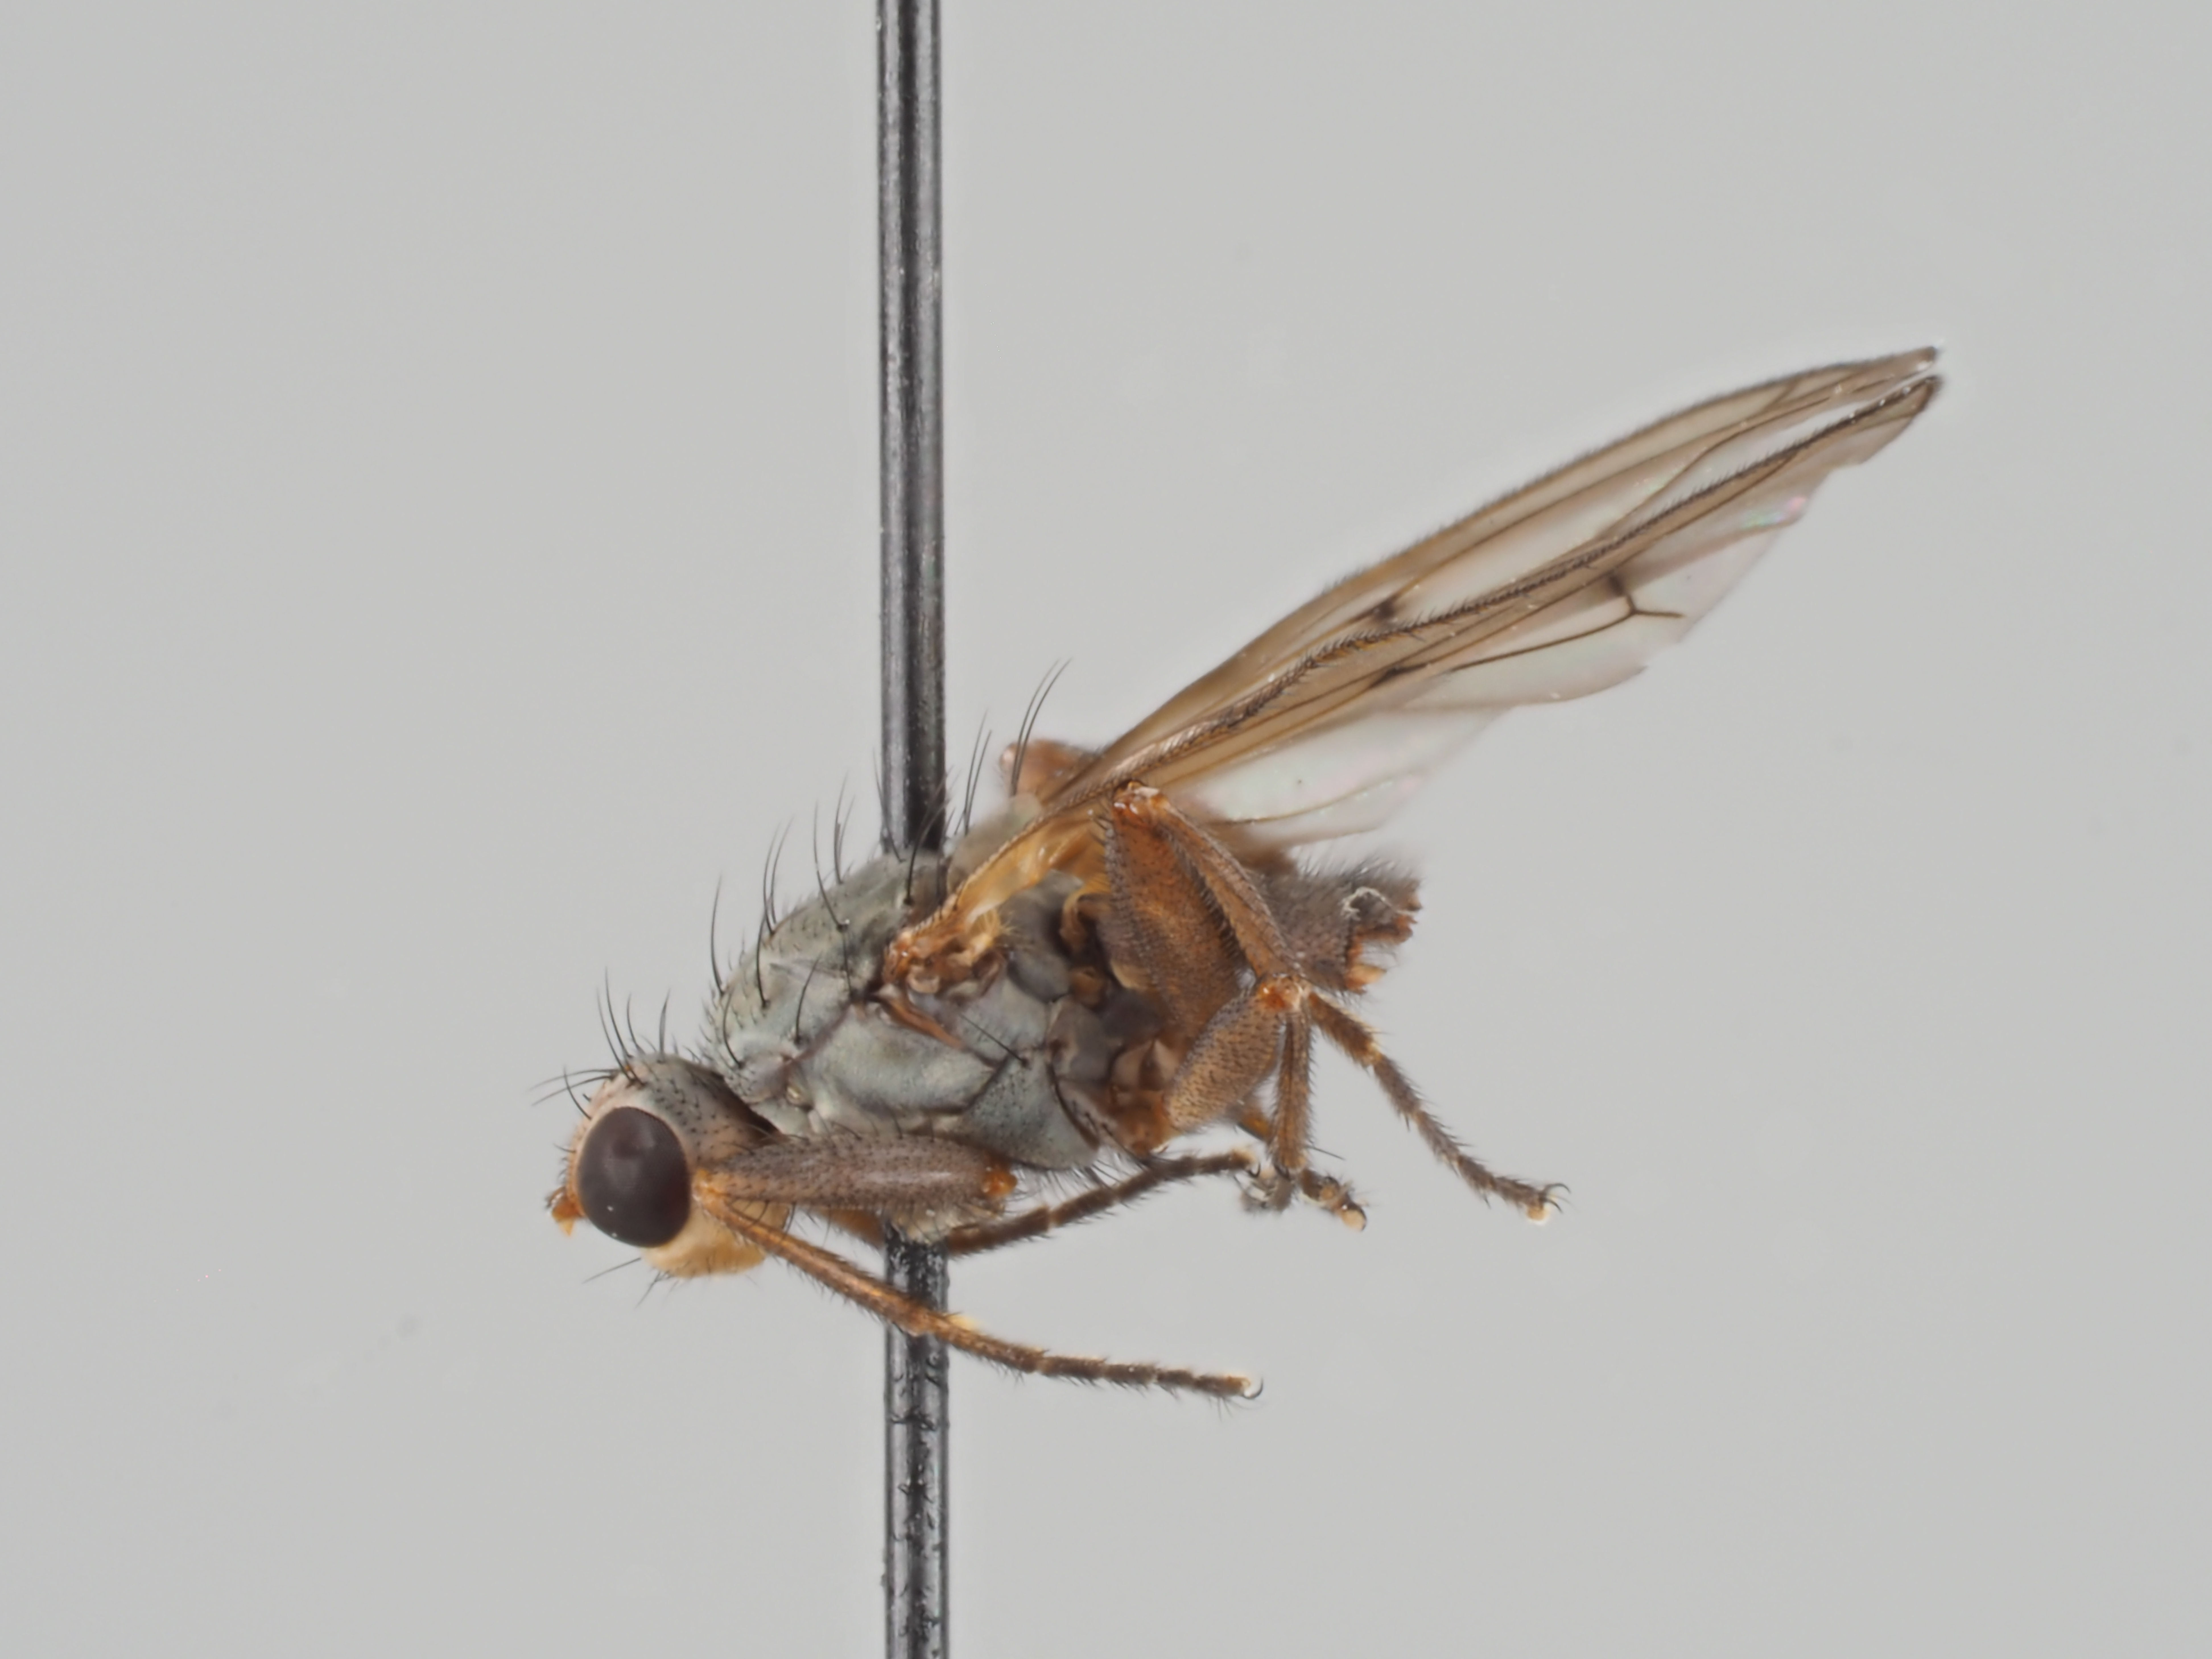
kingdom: Animalia
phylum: Arthropoda
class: Insecta
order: Diptera
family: Heleomyzidae
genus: Scoliocentra
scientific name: Scoliocentra nigrinervis
